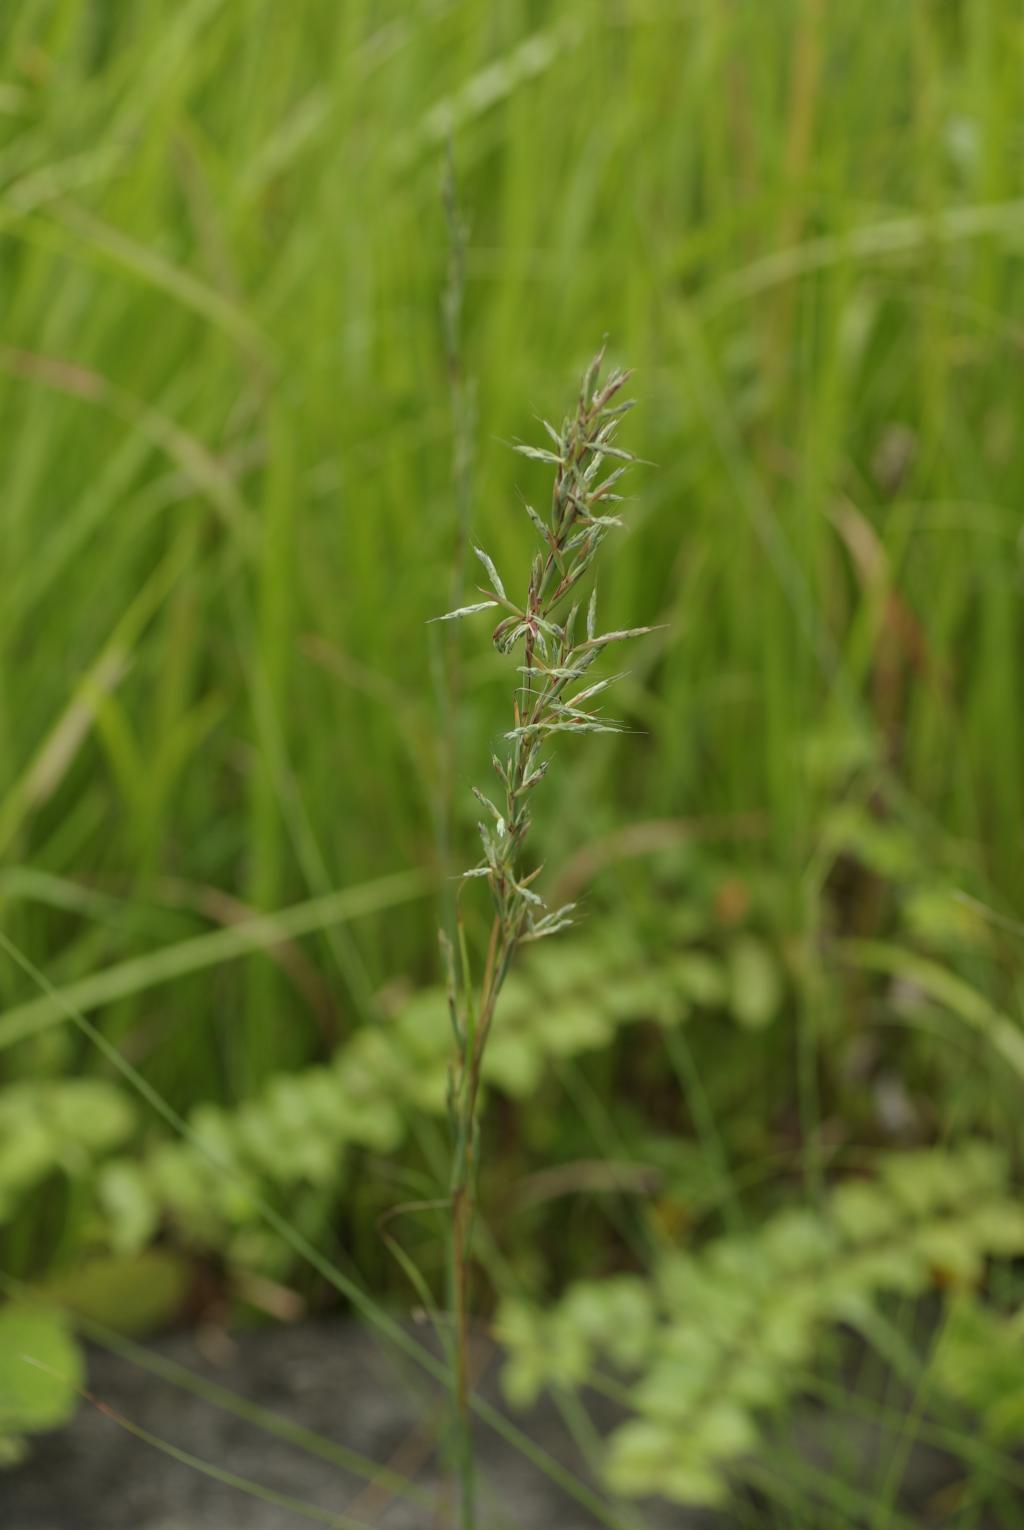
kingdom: Plantae
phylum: Tracheophyta
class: Liliopsida
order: Poales
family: Poaceae
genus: Cymbopogon
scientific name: Cymbopogon tortilis
